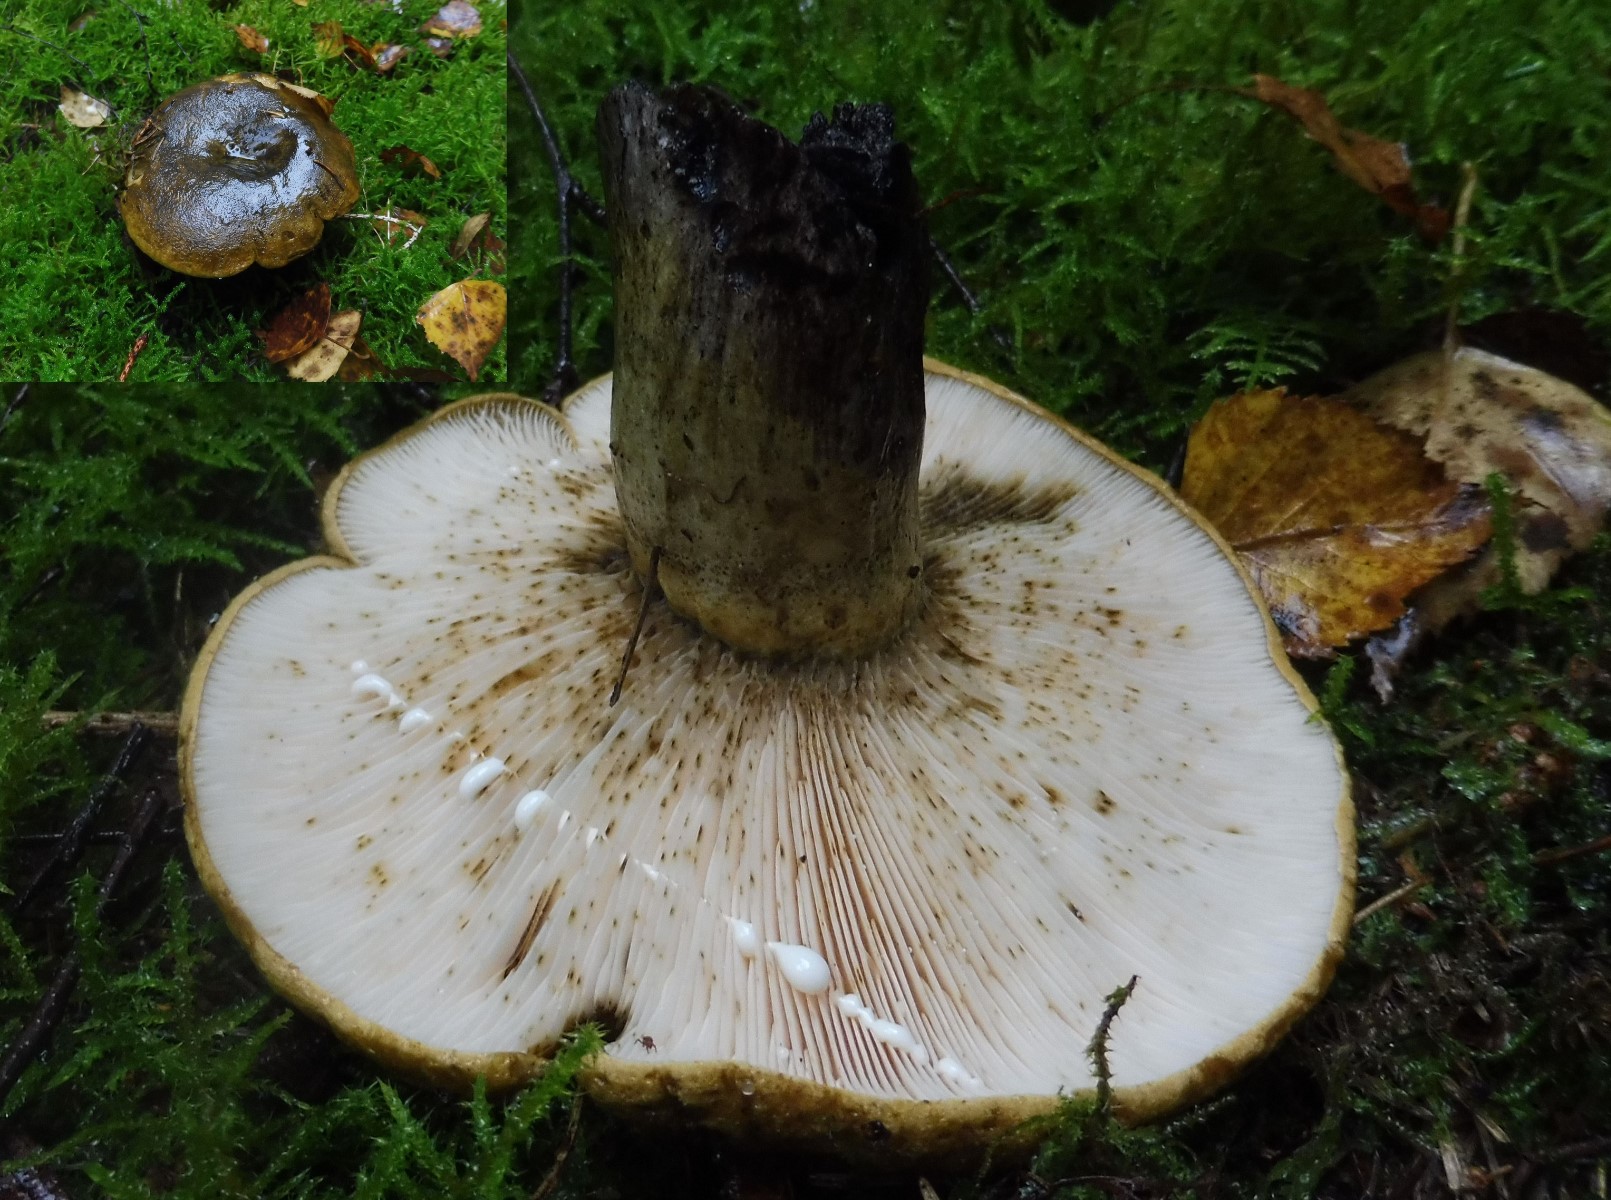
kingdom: Fungi
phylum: Basidiomycota
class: Agaricomycetes
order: Russulales
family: Russulaceae
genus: Lactarius
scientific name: Lactarius necator
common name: manddraber-mælkehat
